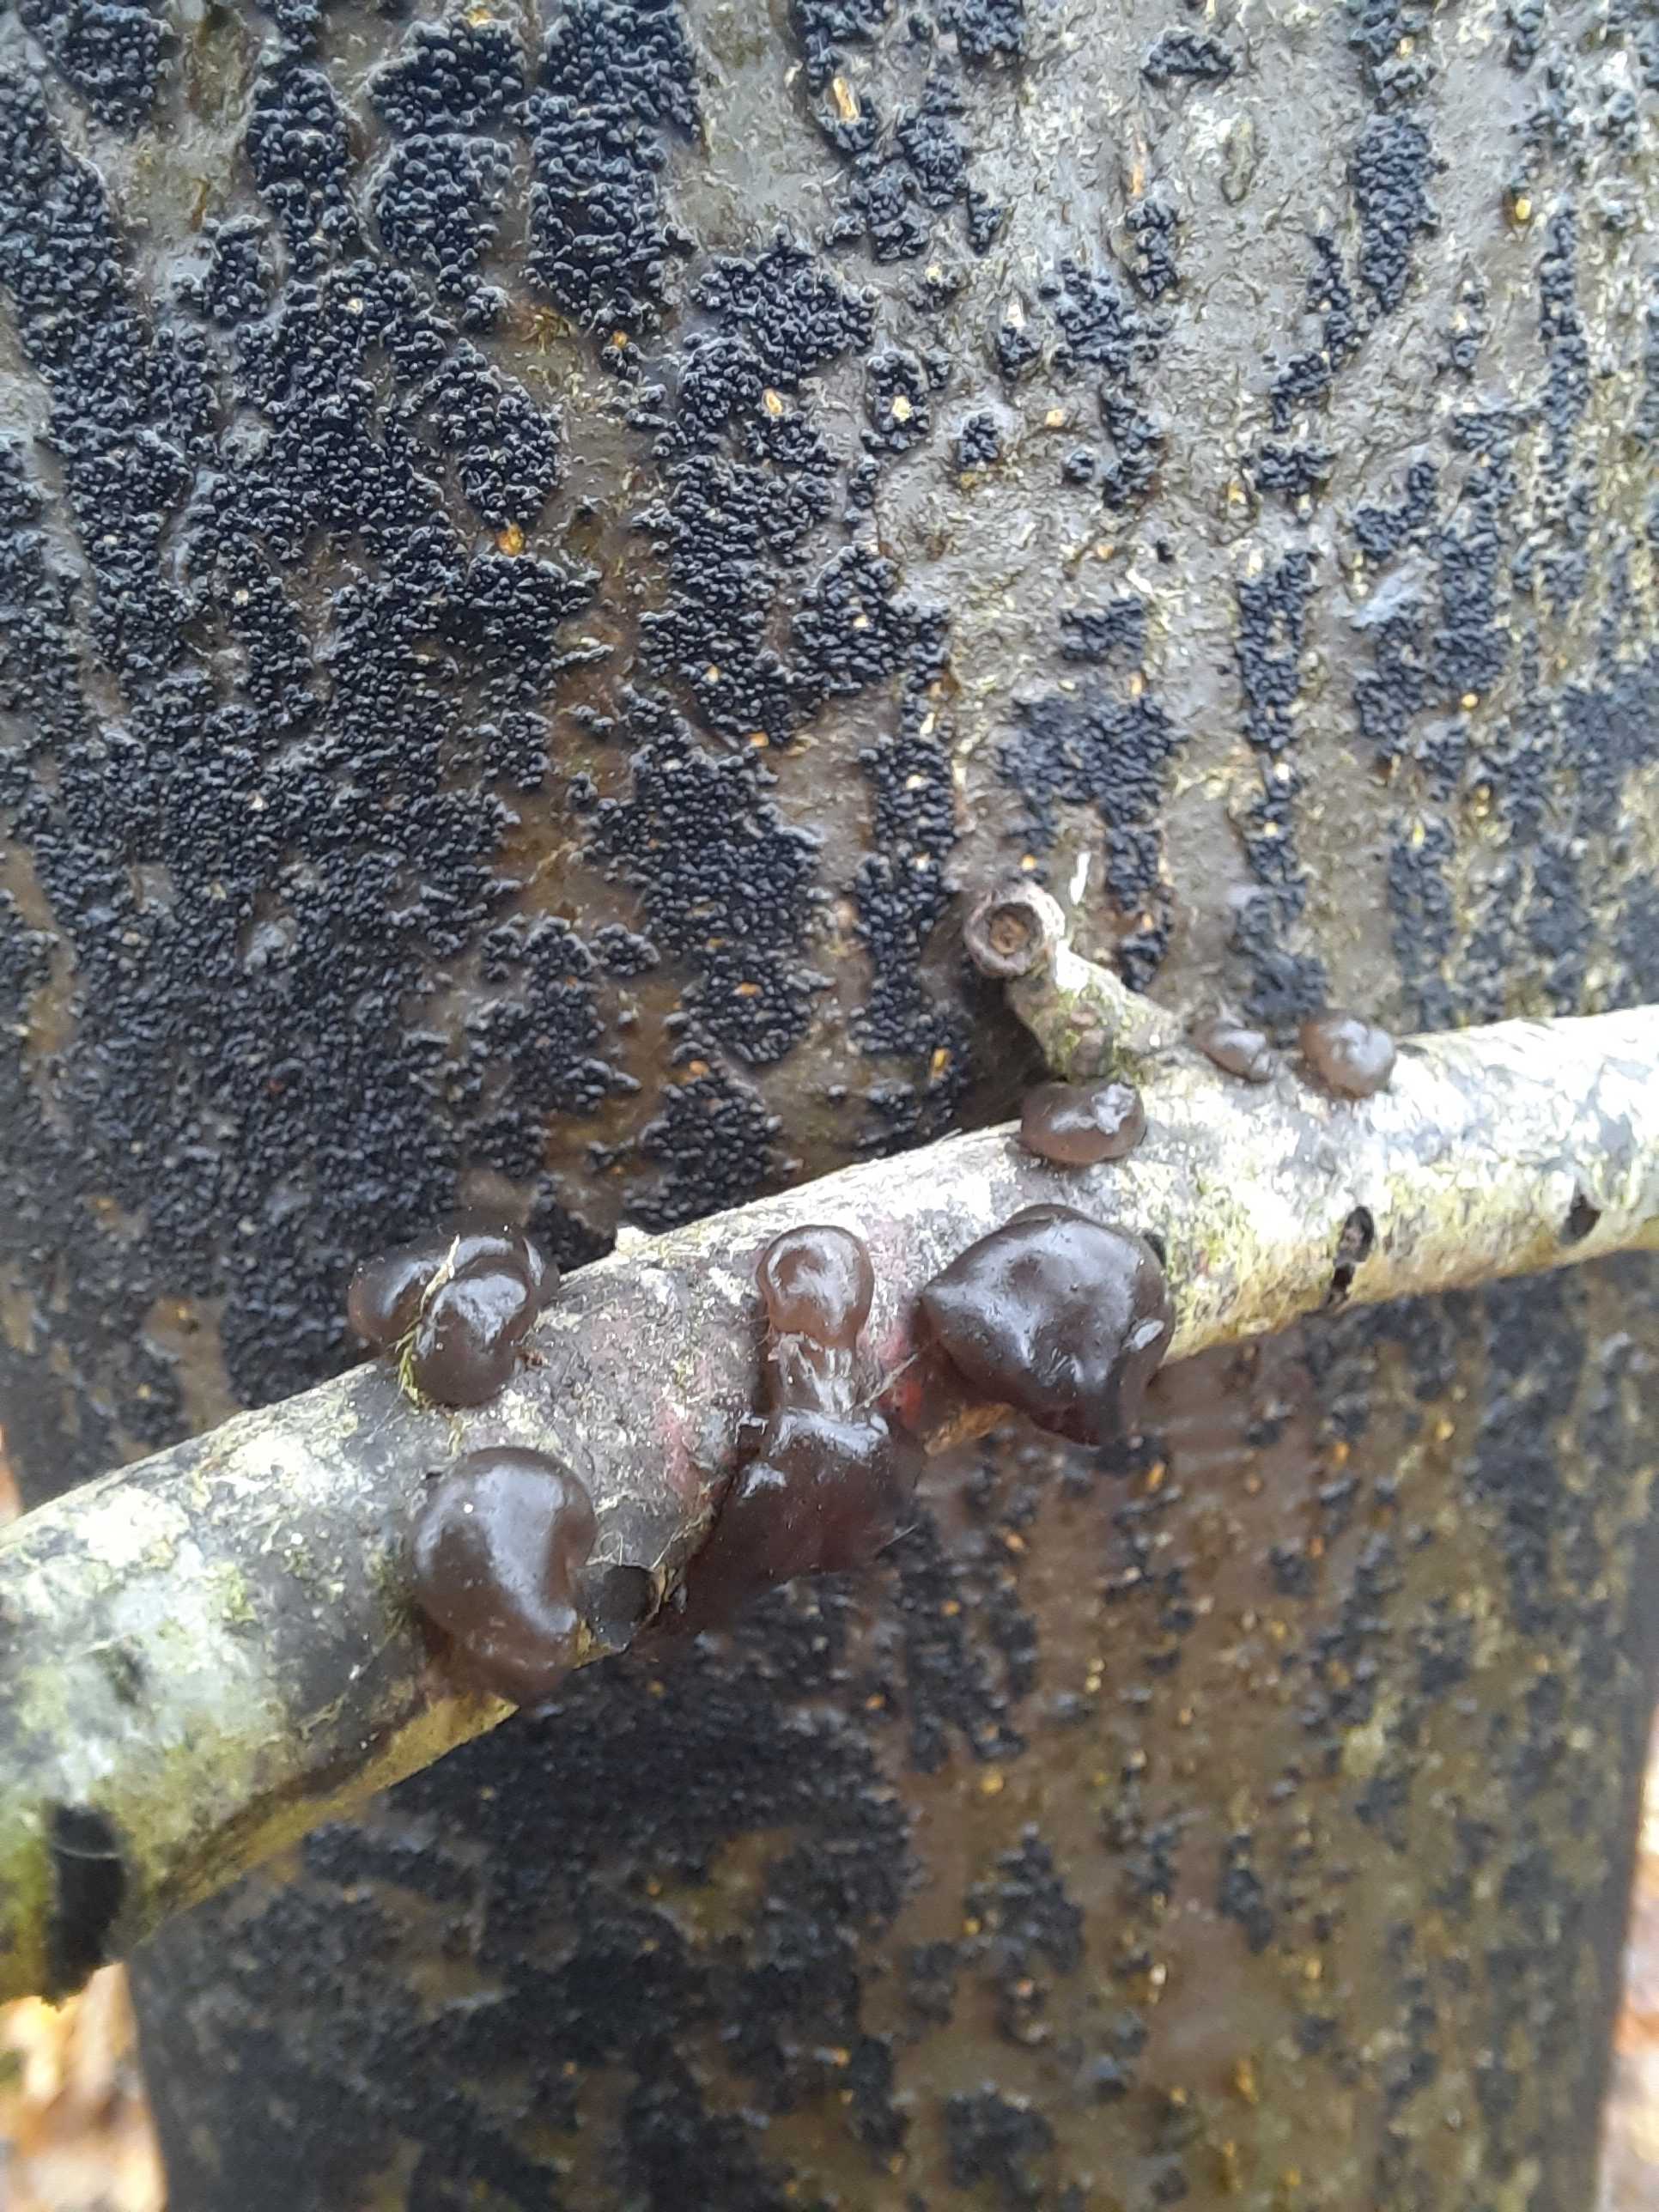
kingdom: Fungi
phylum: Basidiomycota
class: Agaricomycetes
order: Auriculariales
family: Auriculariaceae
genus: Exidia
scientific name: Exidia nigricans
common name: almindelig bævretop
